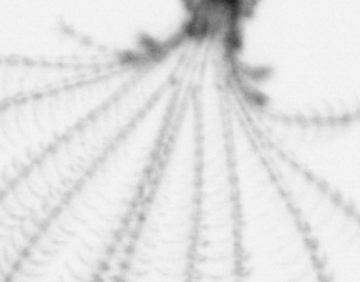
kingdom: Animalia
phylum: Arthropoda
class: Maxillopoda
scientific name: Maxillopoda
